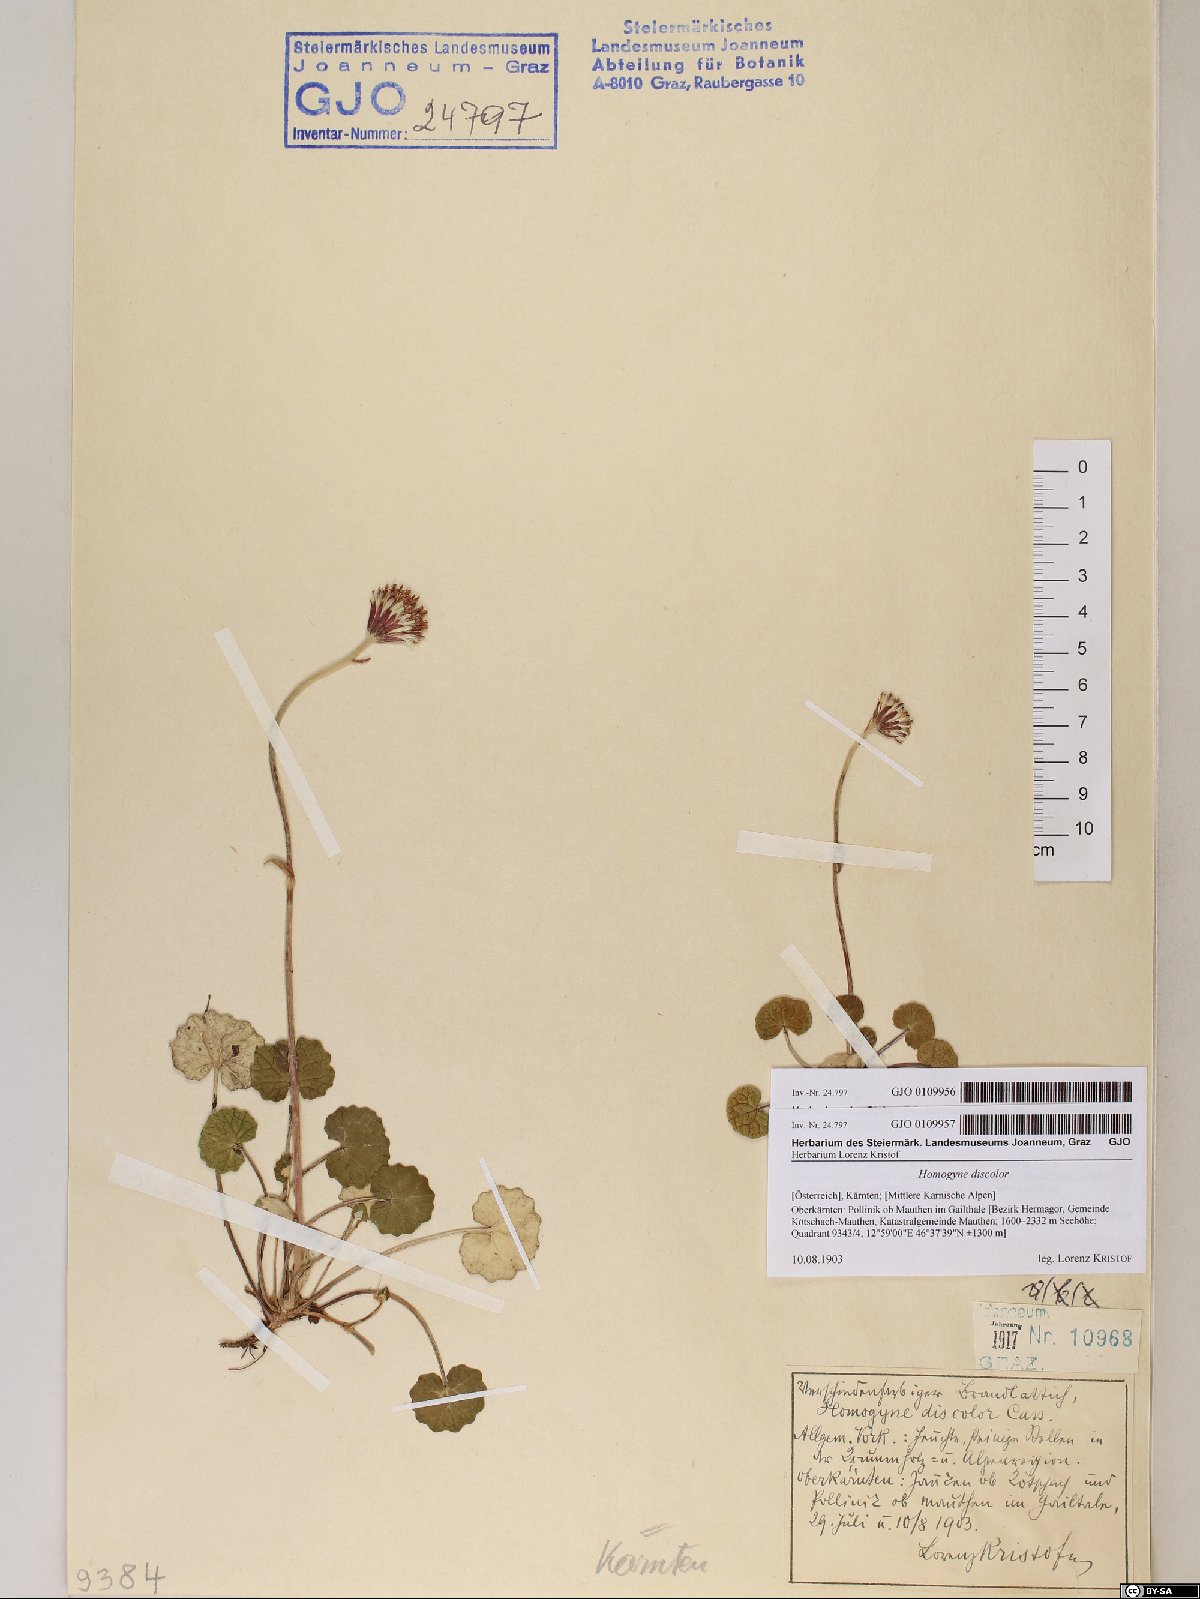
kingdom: Plantae
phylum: Tracheophyta
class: Magnoliopsida
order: Asterales
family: Asteraceae
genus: Homogyne
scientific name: Homogyne discolor
